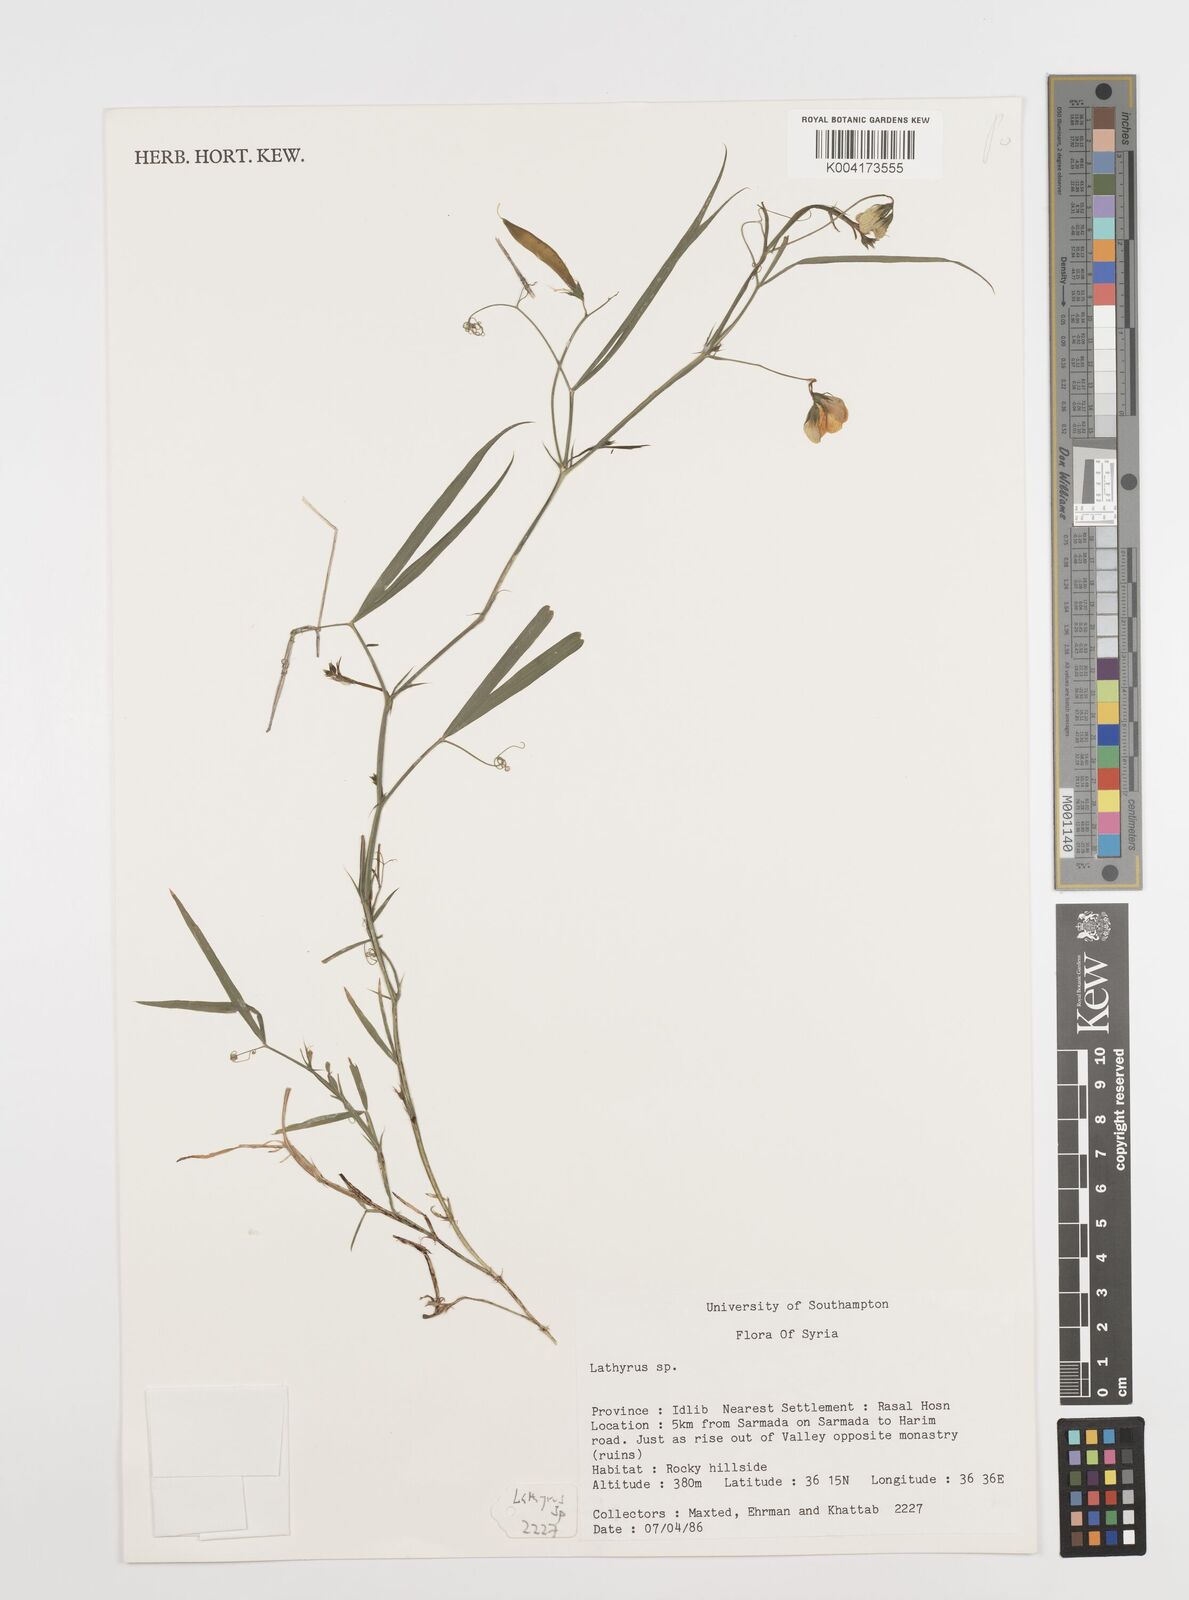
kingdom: Plantae
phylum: Tracheophyta
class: Magnoliopsida
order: Fabales
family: Fabaceae
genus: Lathyrus
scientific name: Lathyrus
